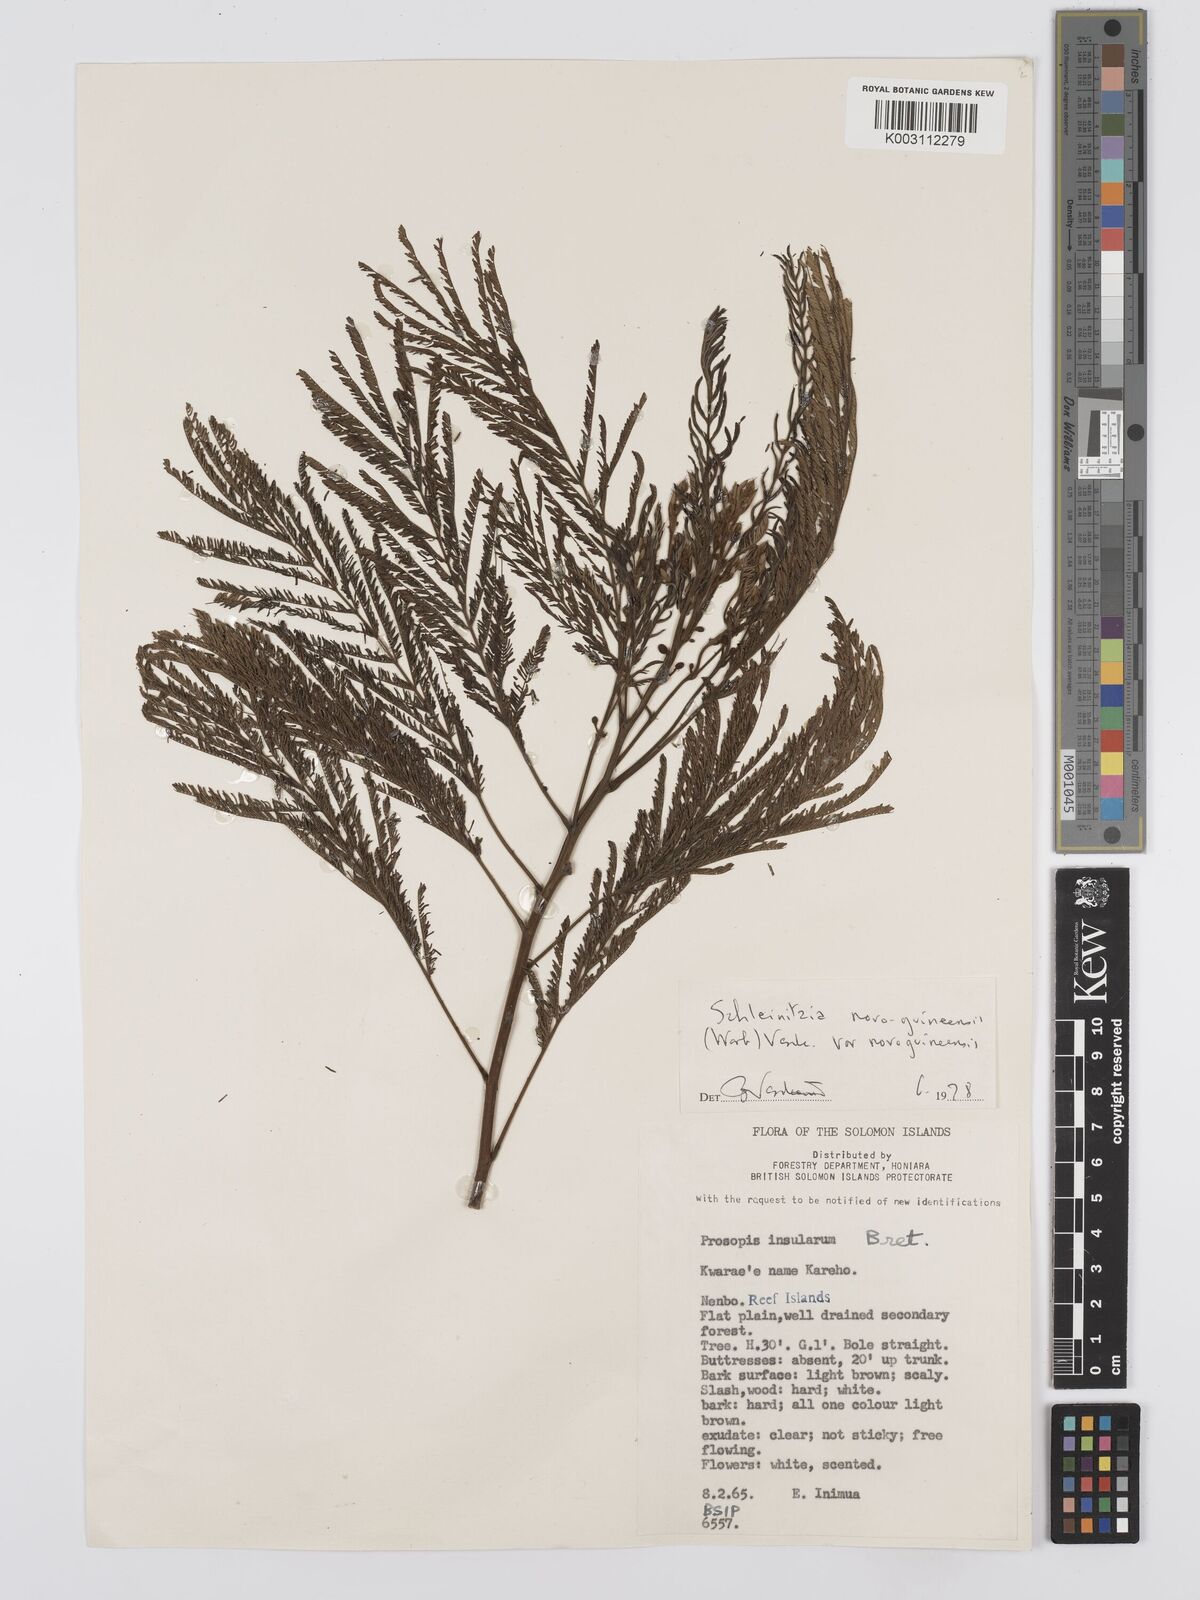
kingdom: Plantae
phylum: Tracheophyta
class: Magnoliopsida
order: Fabales
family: Fabaceae
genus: Schleinitzia
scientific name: Schleinitzia novoguineensis
